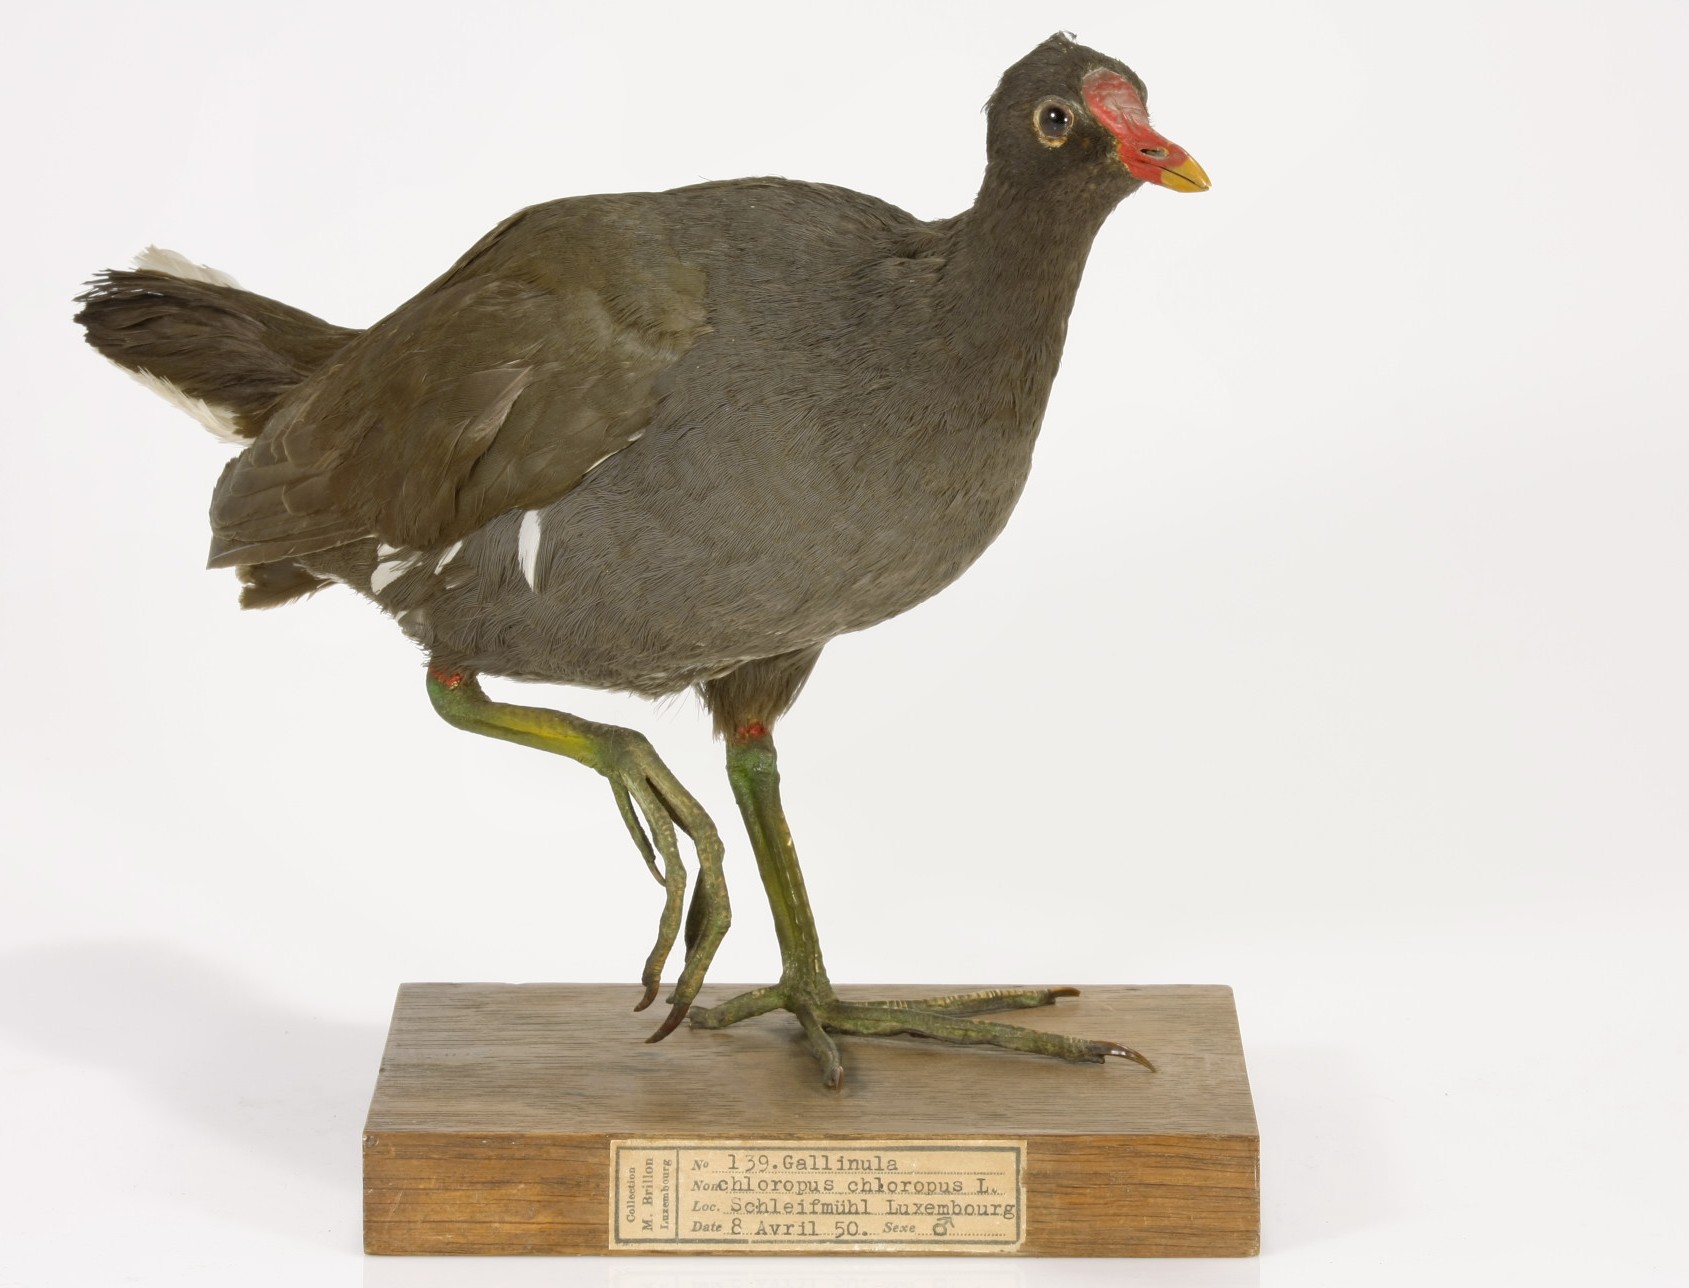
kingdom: Animalia
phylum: Chordata
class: Aves
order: Gruiformes
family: Rallidae
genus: Gallinula
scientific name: Gallinula chloropus
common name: Common moorhen
